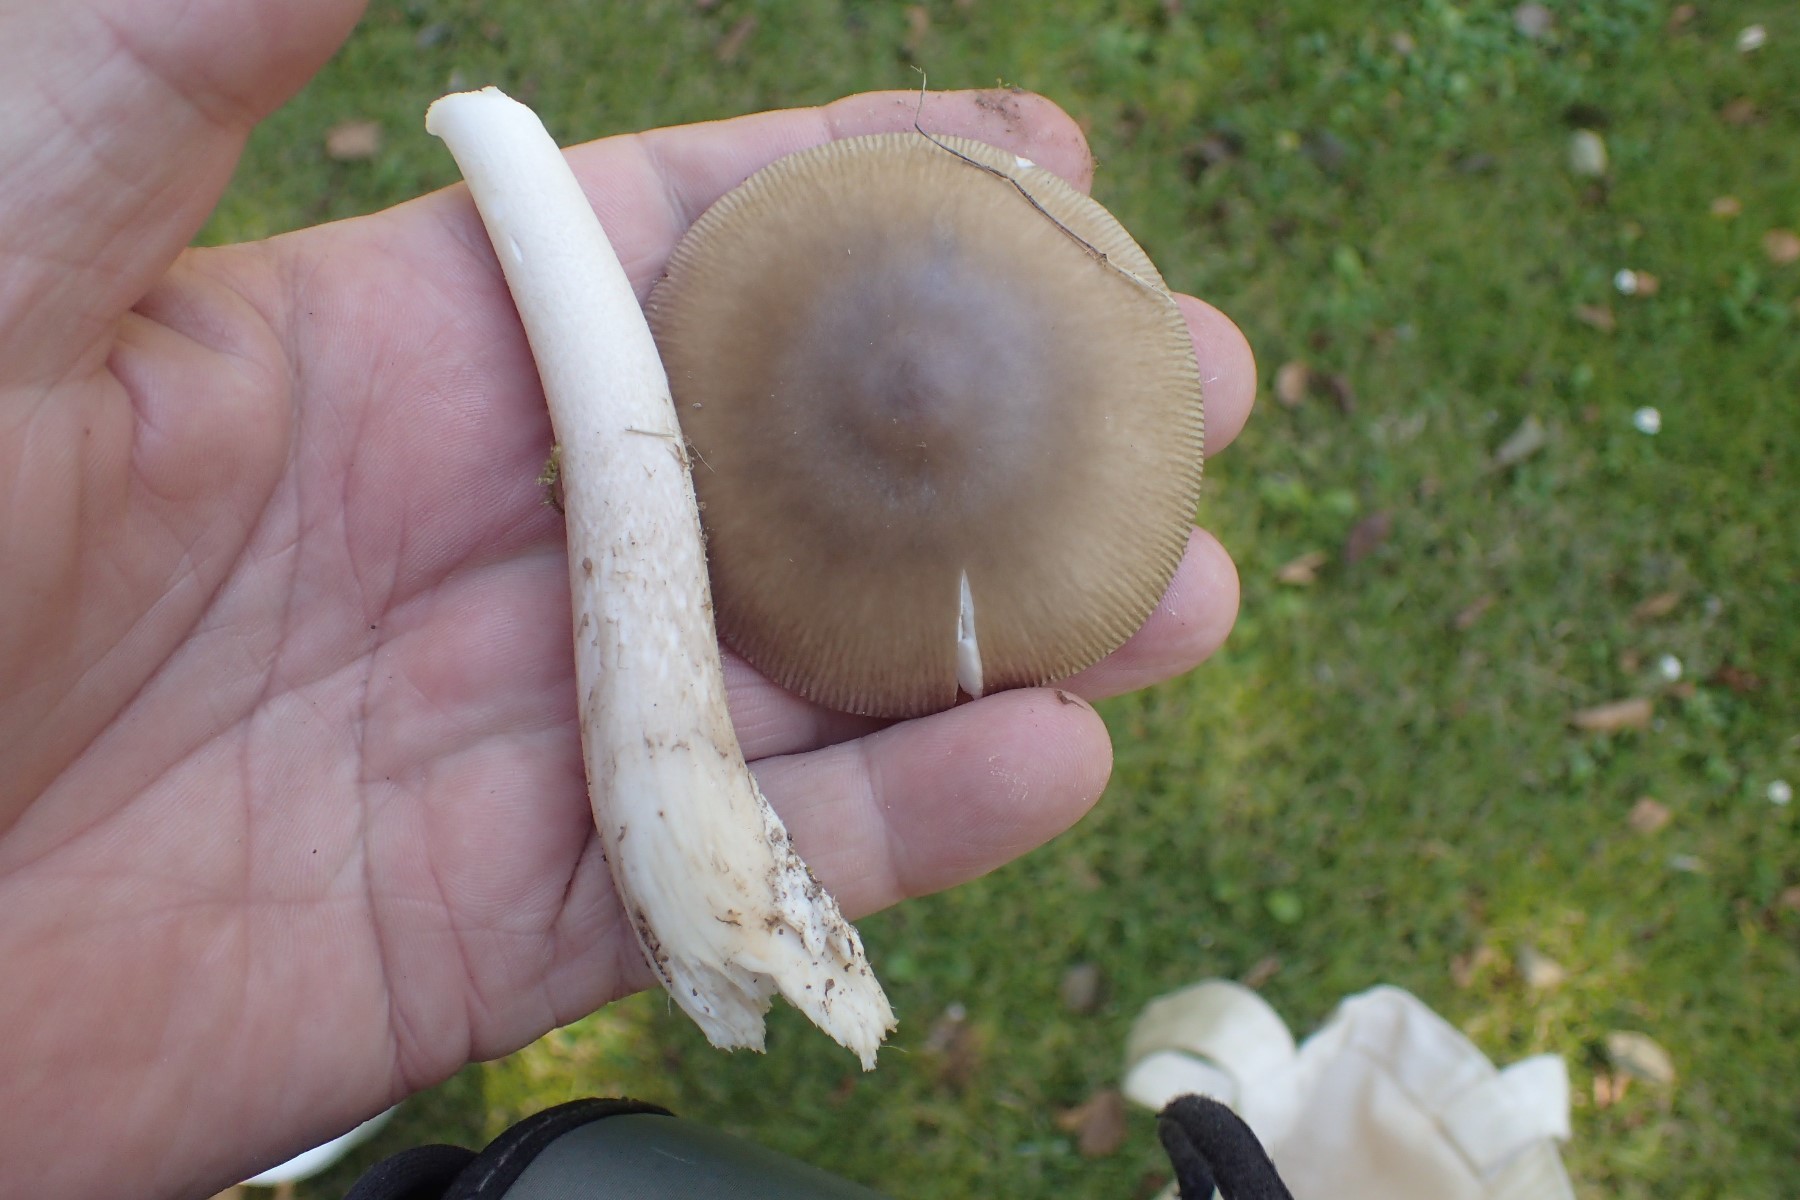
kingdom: Fungi
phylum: Basidiomycota
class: Agaricomycetes
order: Agaricales
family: Amanitaceae
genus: Amanita
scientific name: Amanita submembranacea
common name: gråspættet kam-fluesvamp
